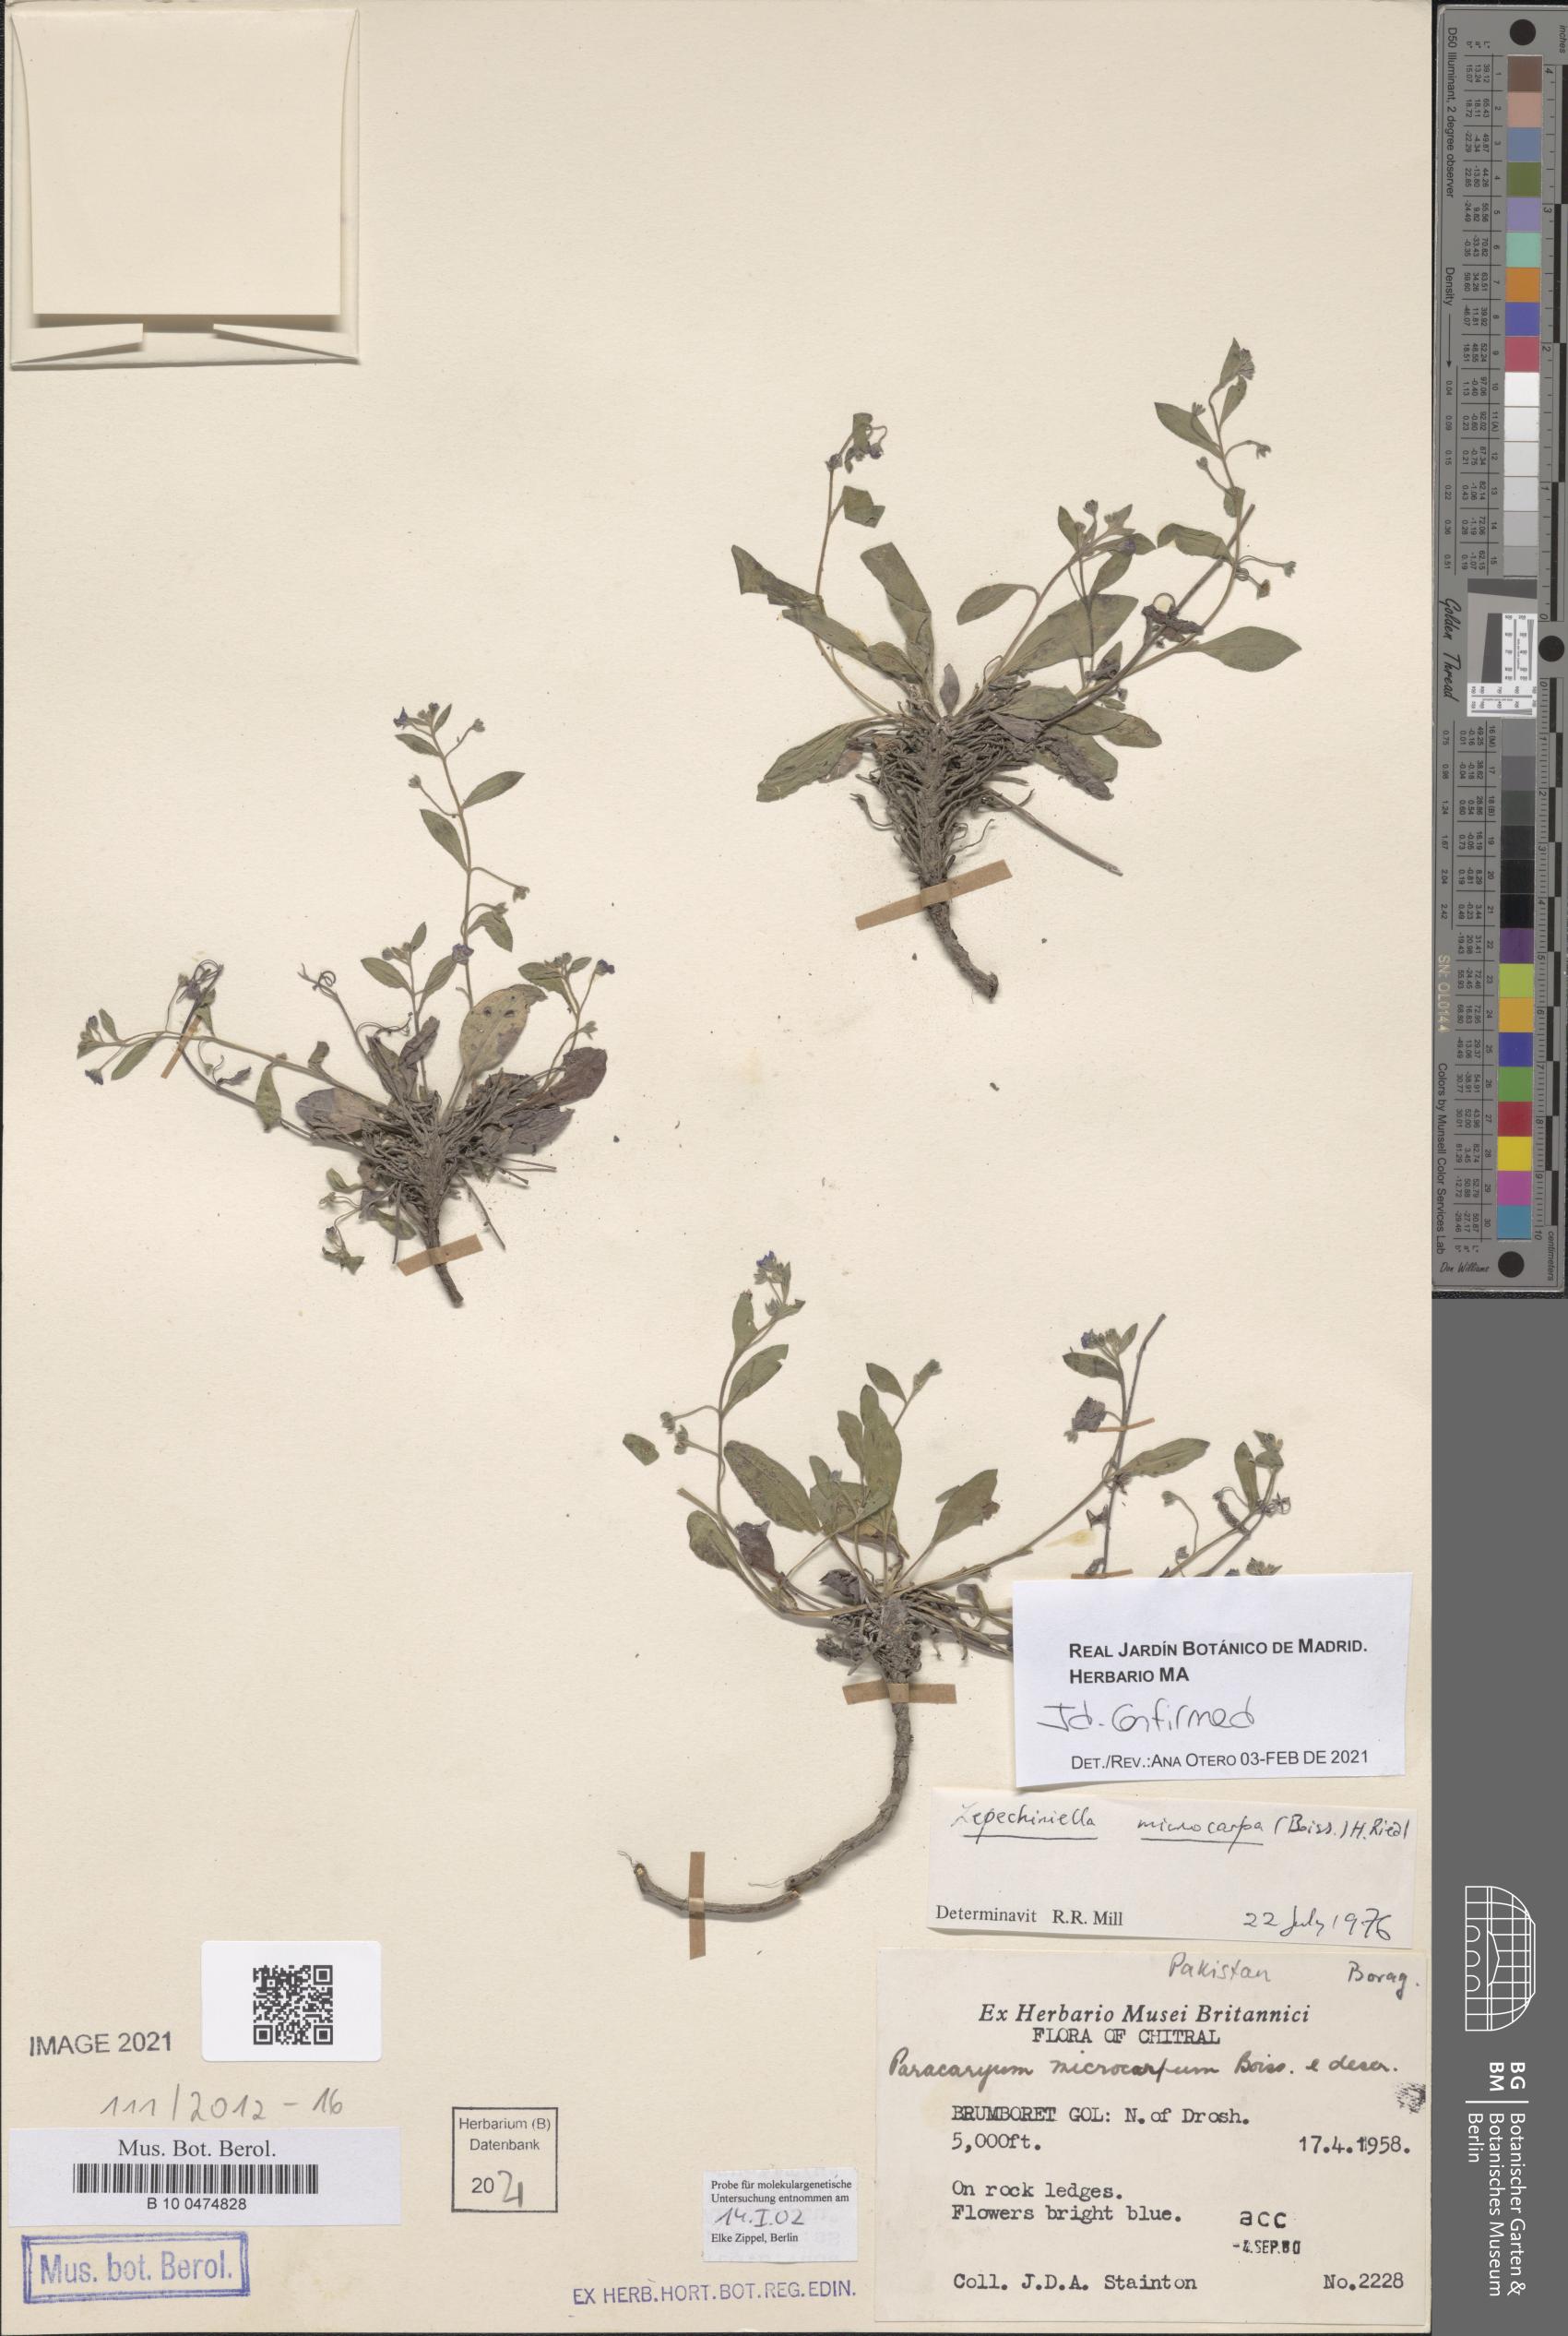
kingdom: Plantae
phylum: Tracheophyta
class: Magnoliopsida
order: Boraginales
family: Boraginaceae
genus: Lepechiniella
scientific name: Lepechiniella microcarpa
